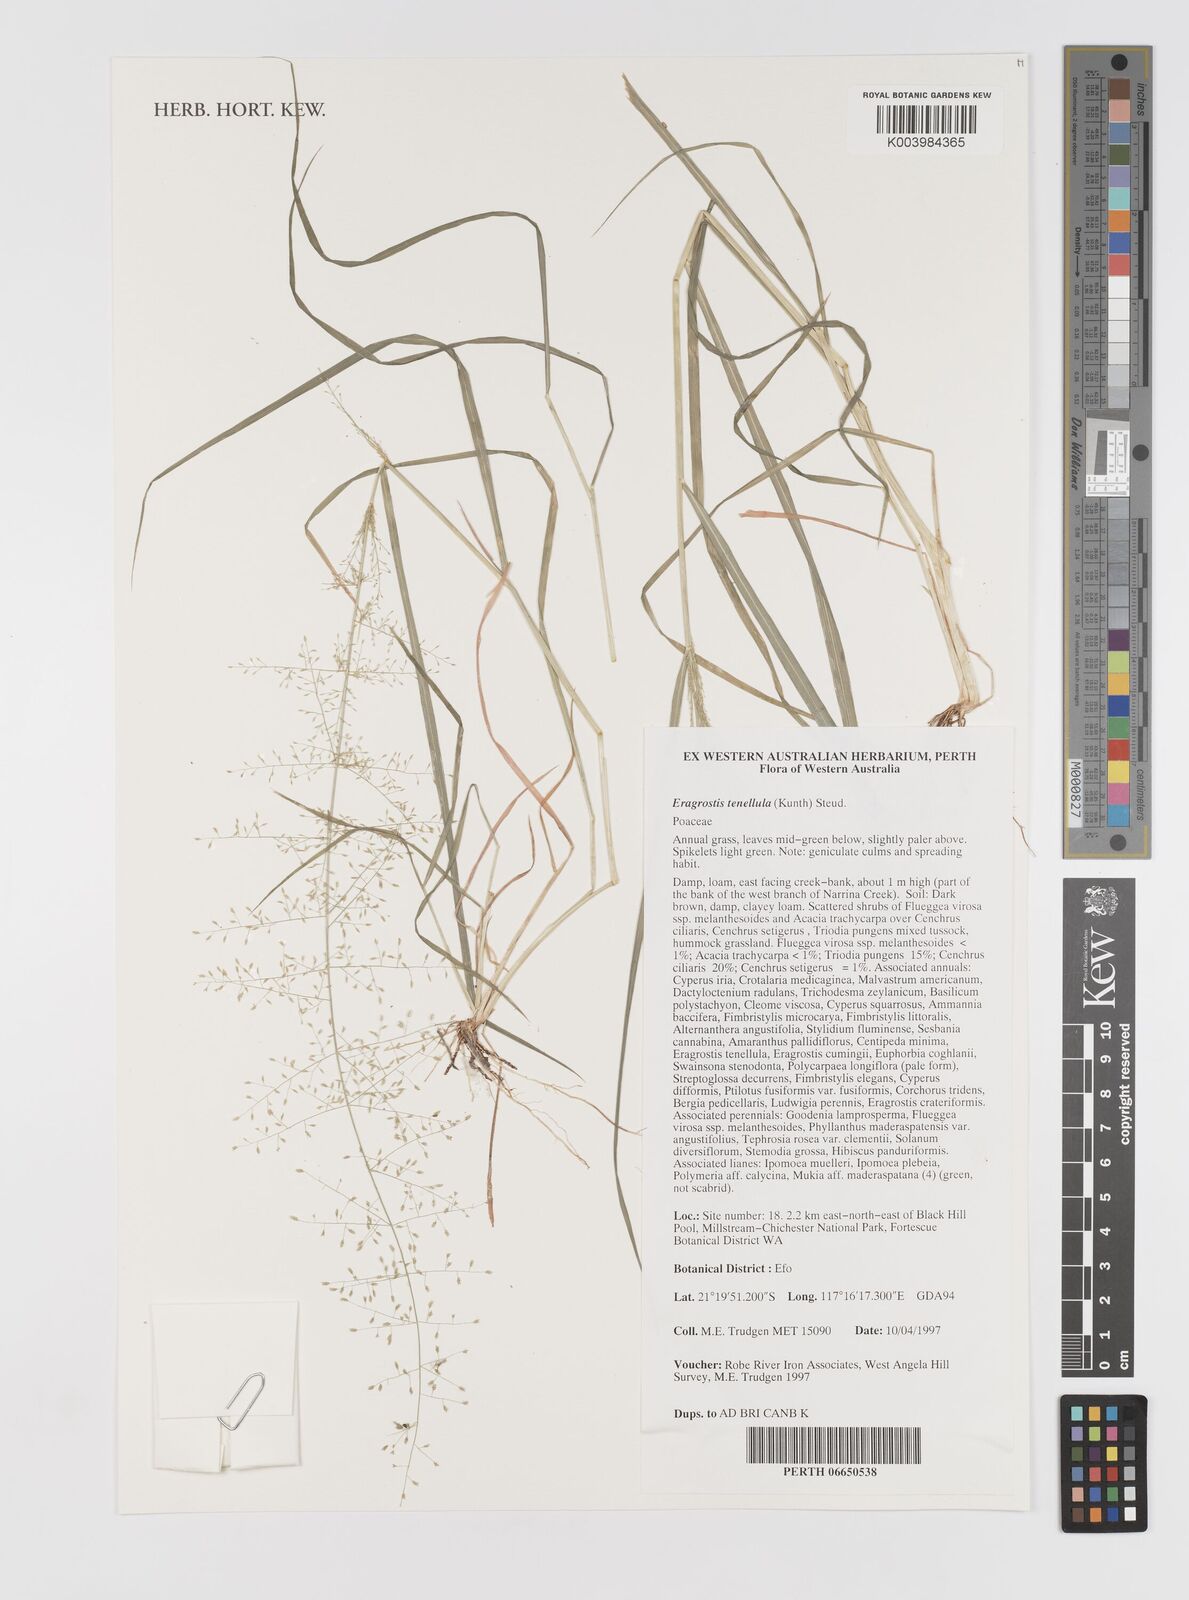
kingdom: Plantae
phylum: Tracheophyta
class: Liliopsida
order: Poales
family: Poaceae
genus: Eragrostis
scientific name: Eragrostis tenellula
